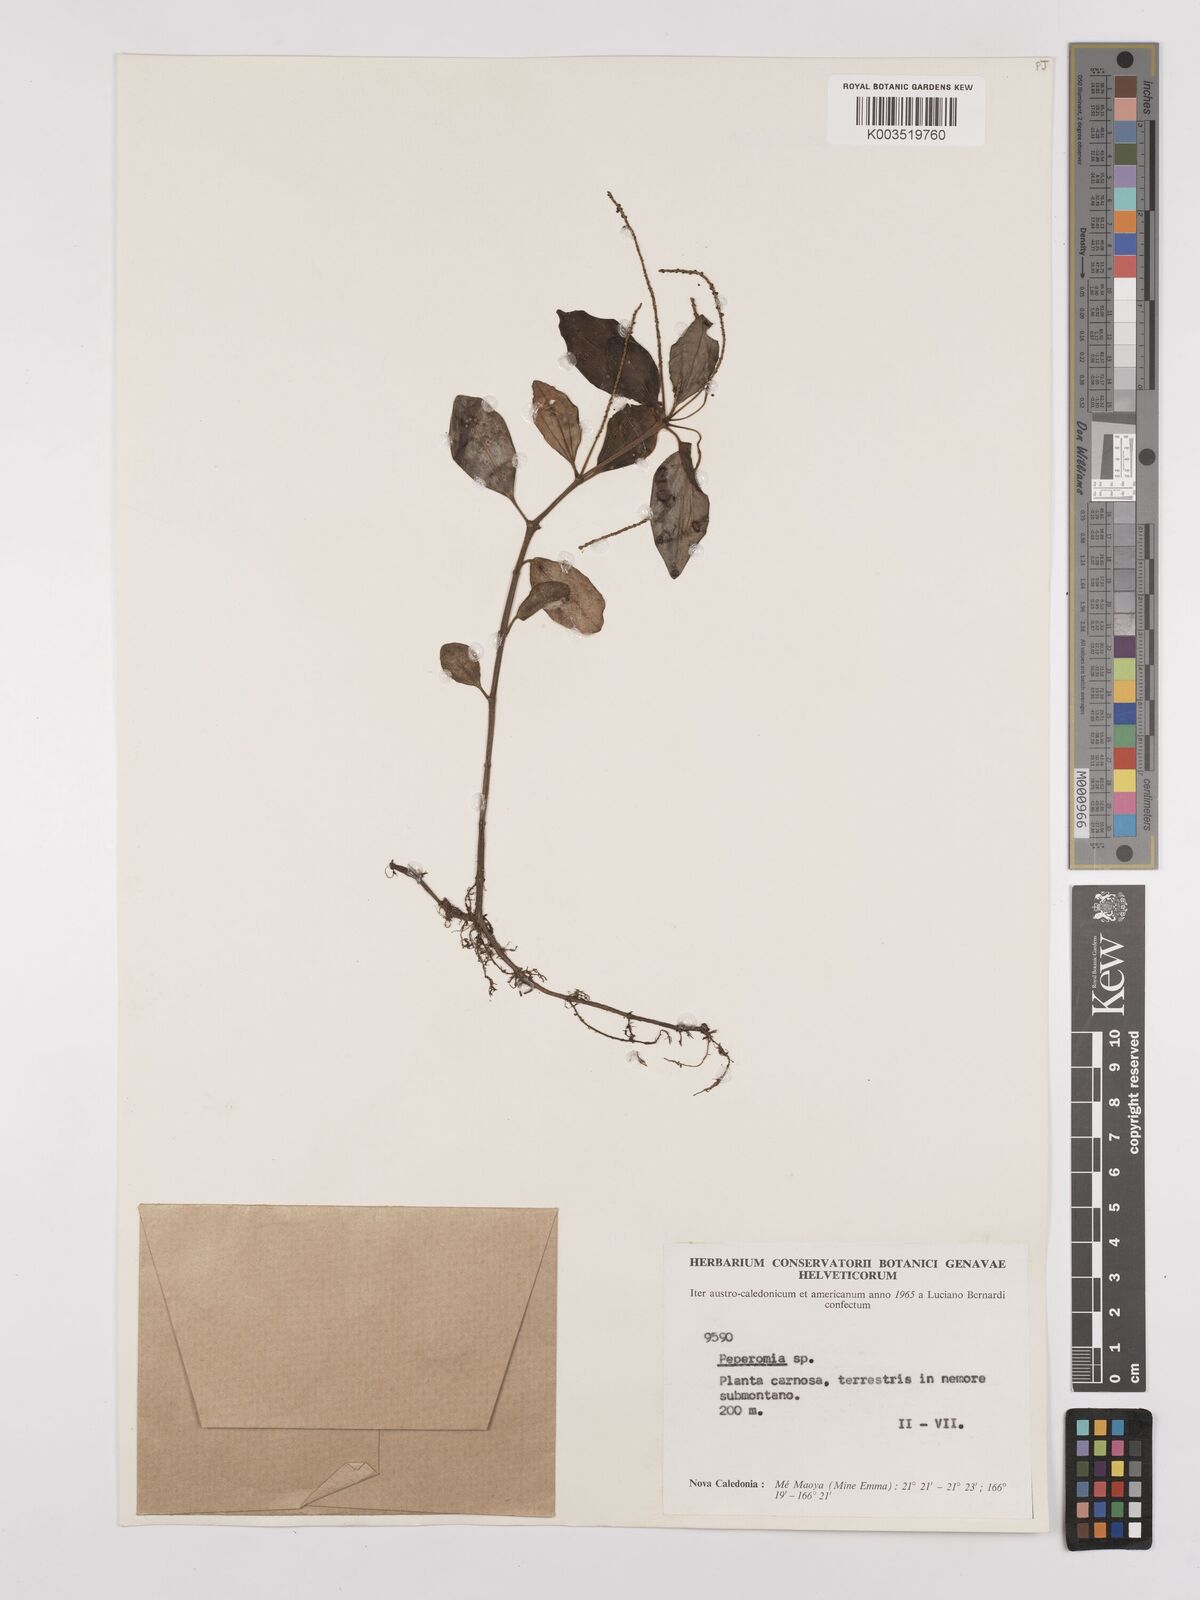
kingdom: Plantae
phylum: Tracheophyta
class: Magnoliopsida
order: Piperales
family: Piperaceae
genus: Peperomia
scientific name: Peperomia
